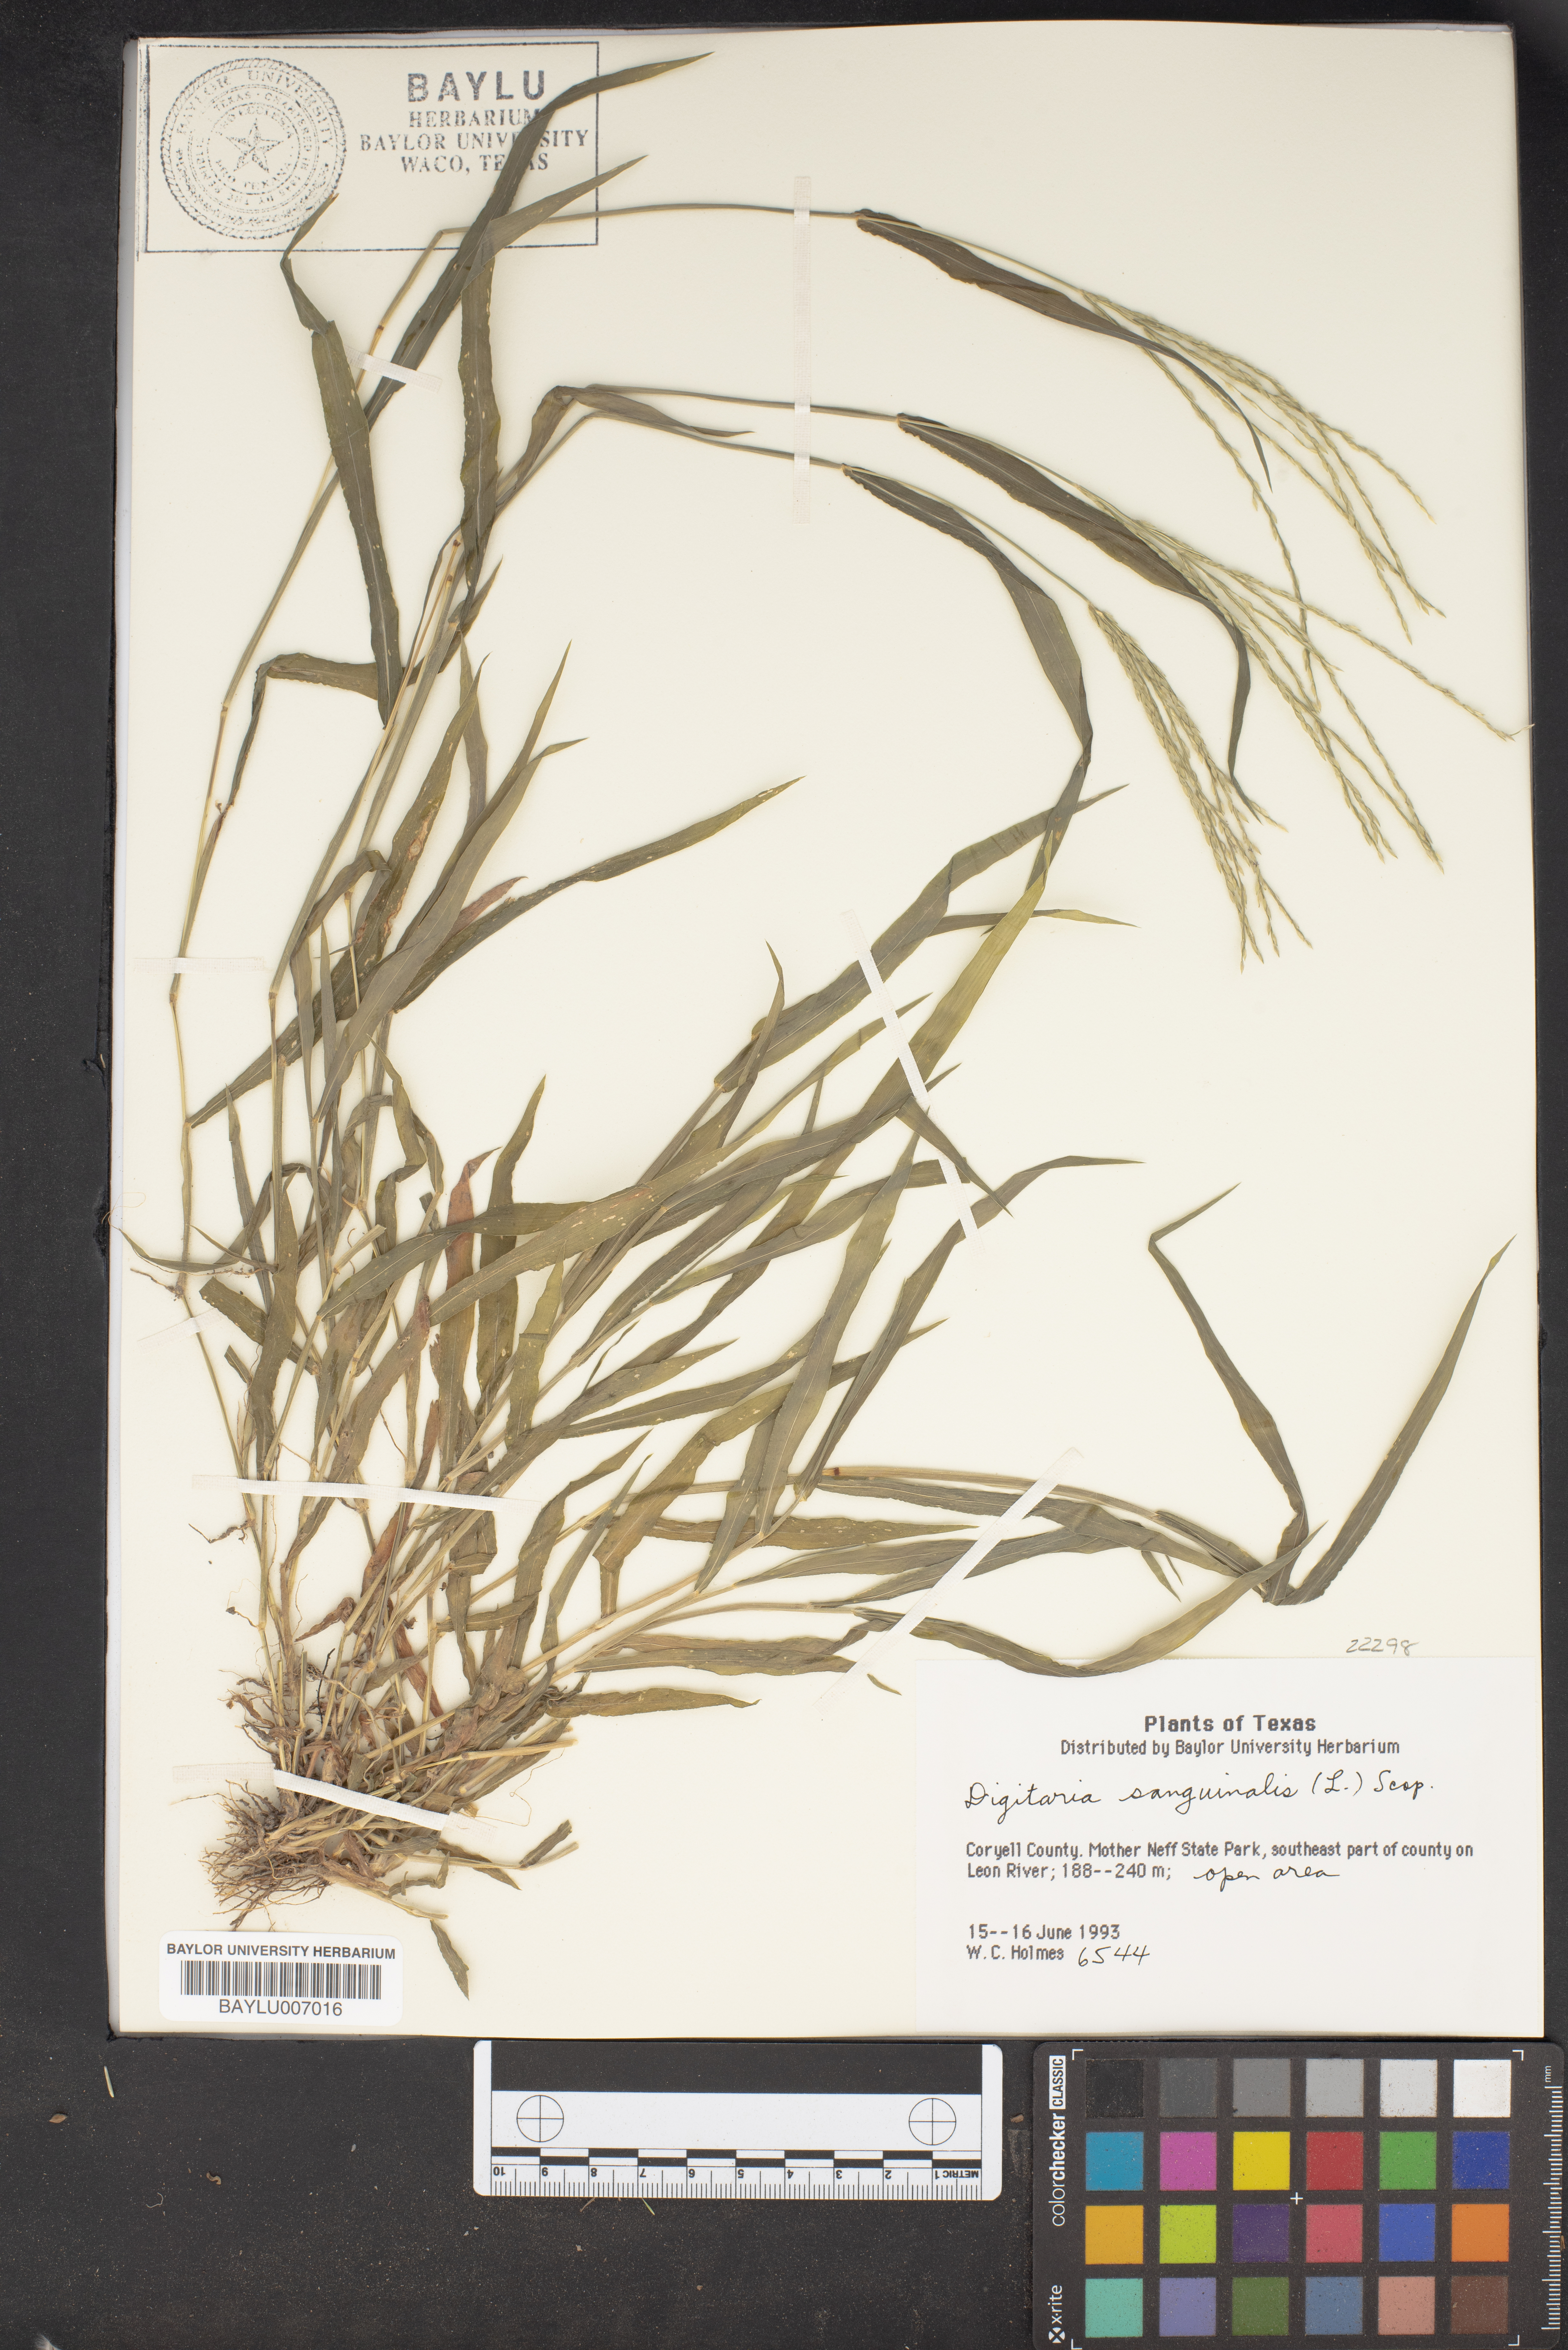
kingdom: Plantae
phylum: Tracheophyta
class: Liliopsida
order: Poales
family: Poaceae
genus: Digitaria
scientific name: Digitaria sanguinalis
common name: Hairy crabgrass
